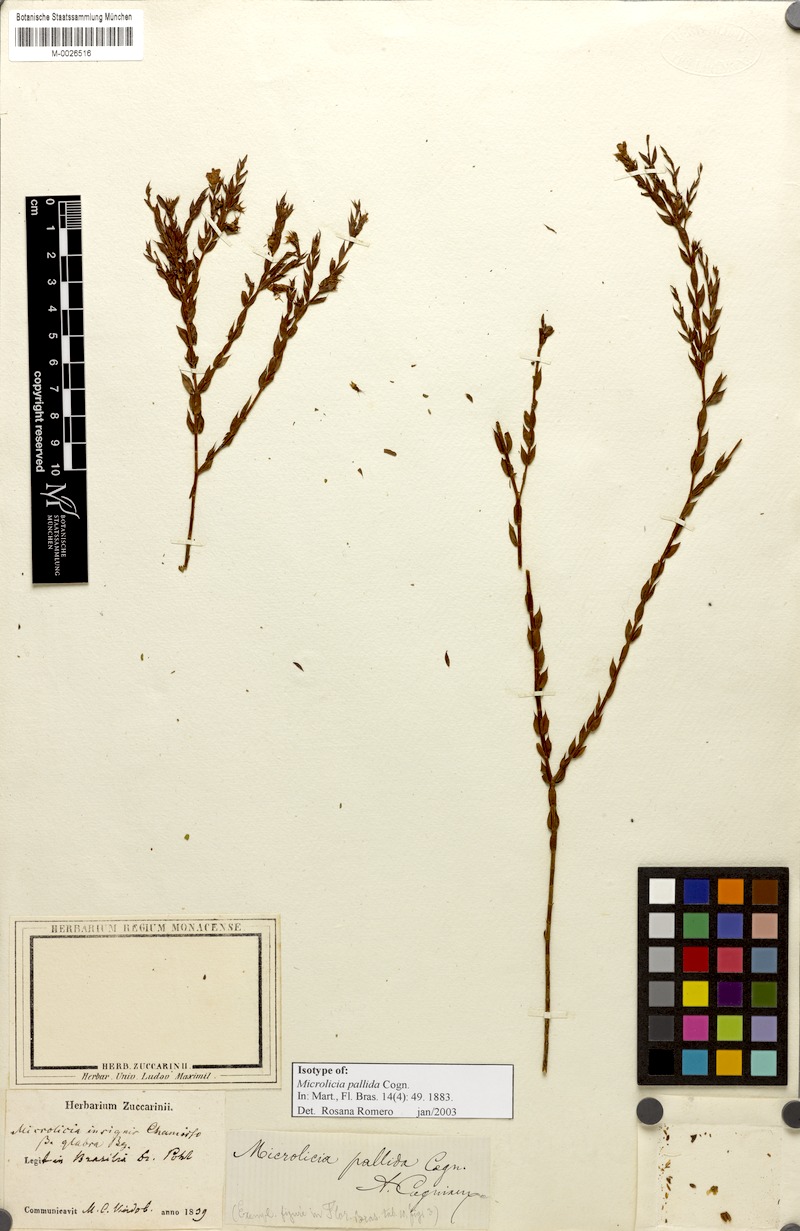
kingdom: Plantae
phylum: Tracheophyta
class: Magnoliopsida
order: Myrtales
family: Melastomataceae
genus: Microlicia
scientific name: Microlicia insignis
